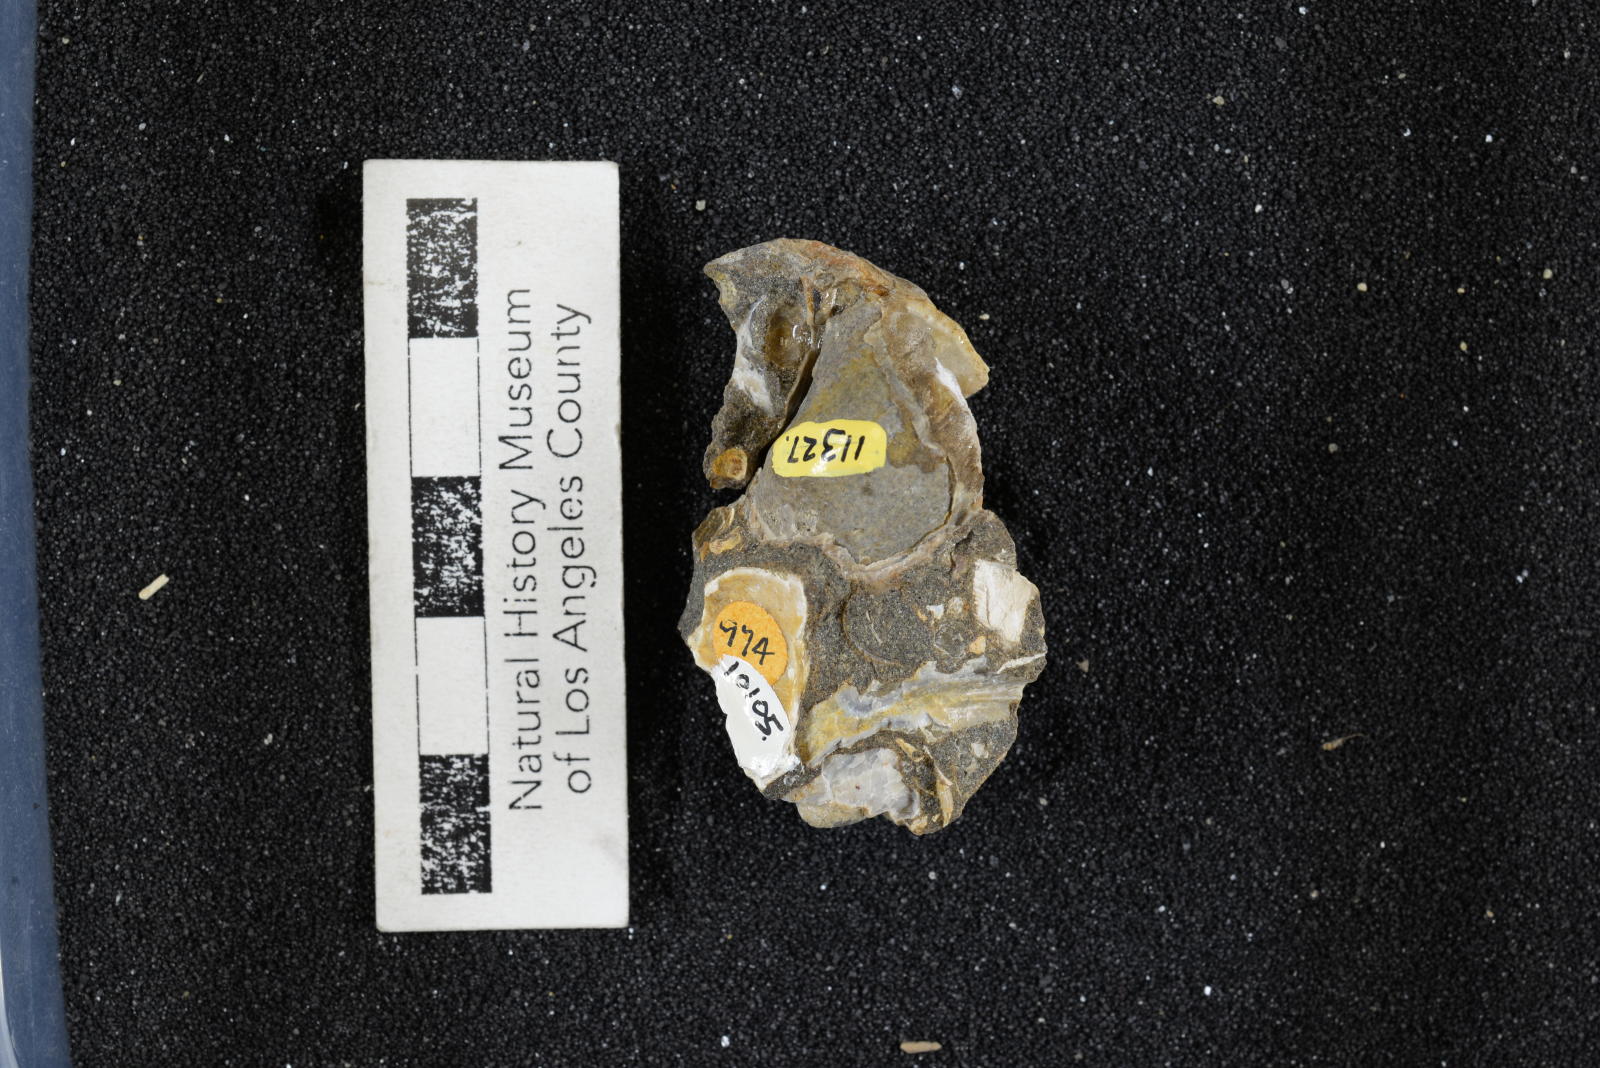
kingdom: Animalia
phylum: Mollusca
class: Gastropoda
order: Littorinimorpha
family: Aporrhaidae
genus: Anchura
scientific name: Anchura phaba
